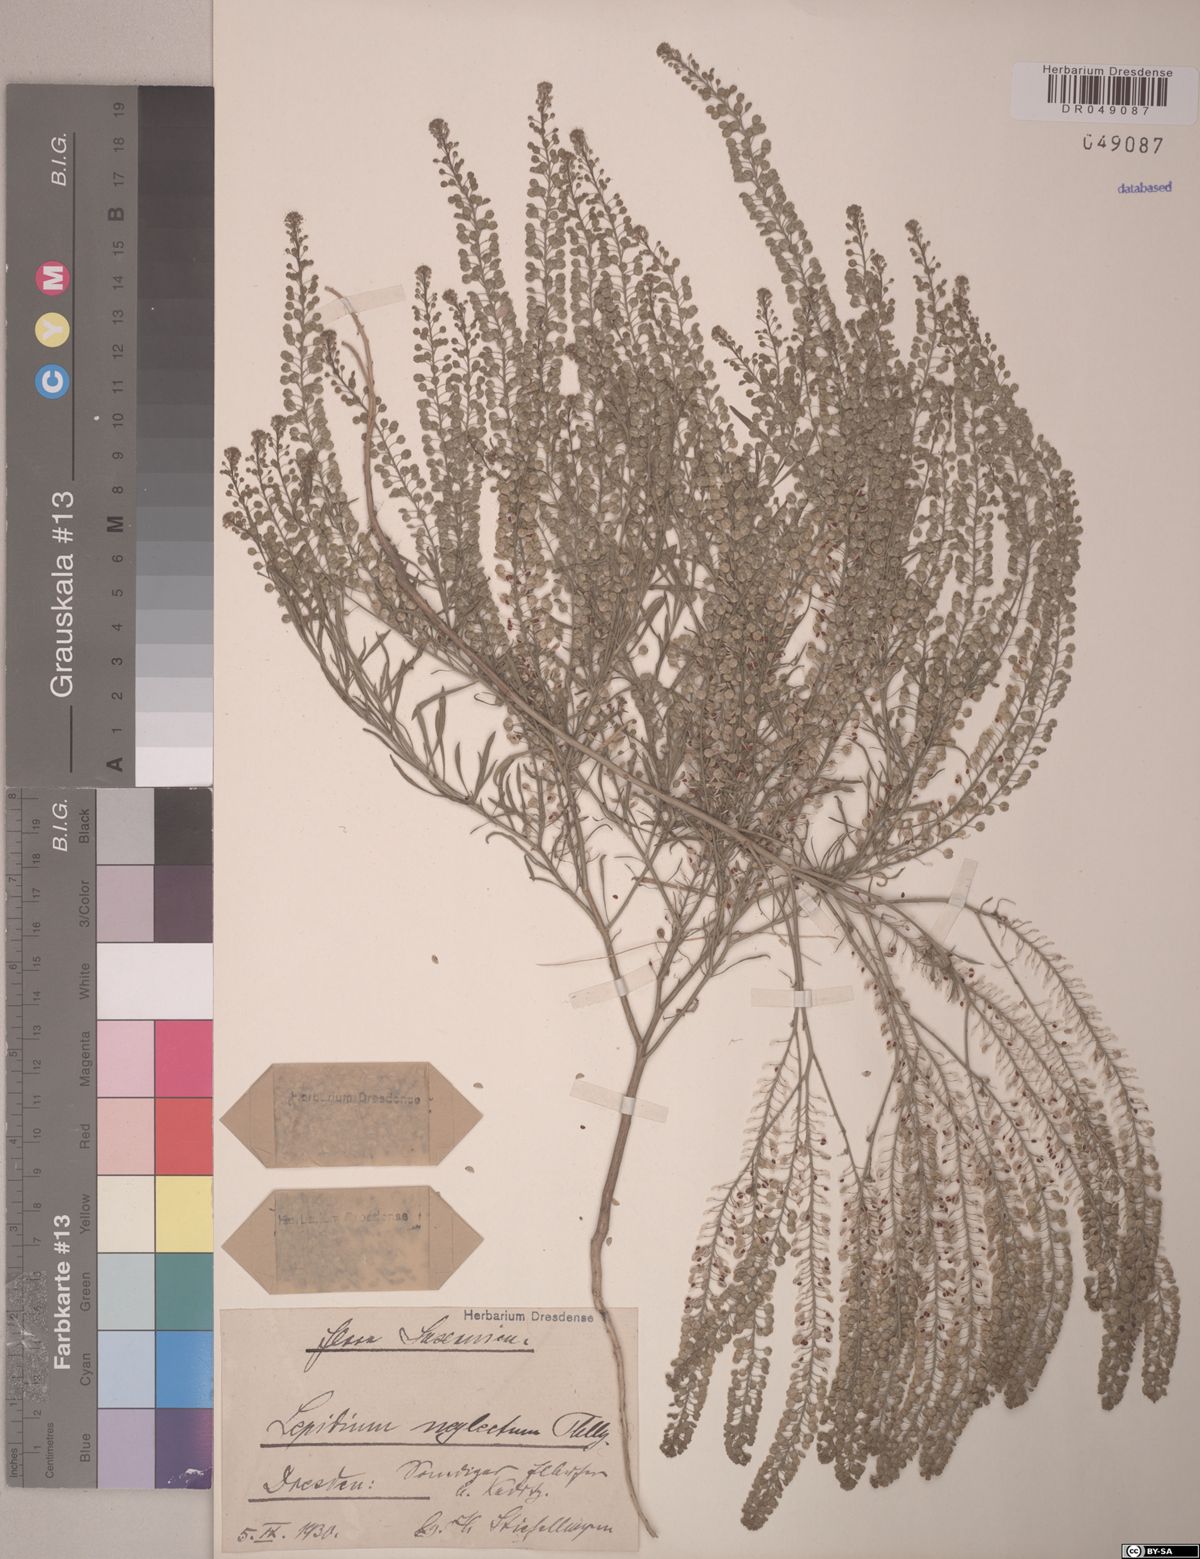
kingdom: Plantae
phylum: Tracheophyta
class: Magnoliopsida
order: Brassicales
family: Brassicaceae
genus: Lepidium
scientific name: Lepidium densiflorum
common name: Miner's pepperwort
